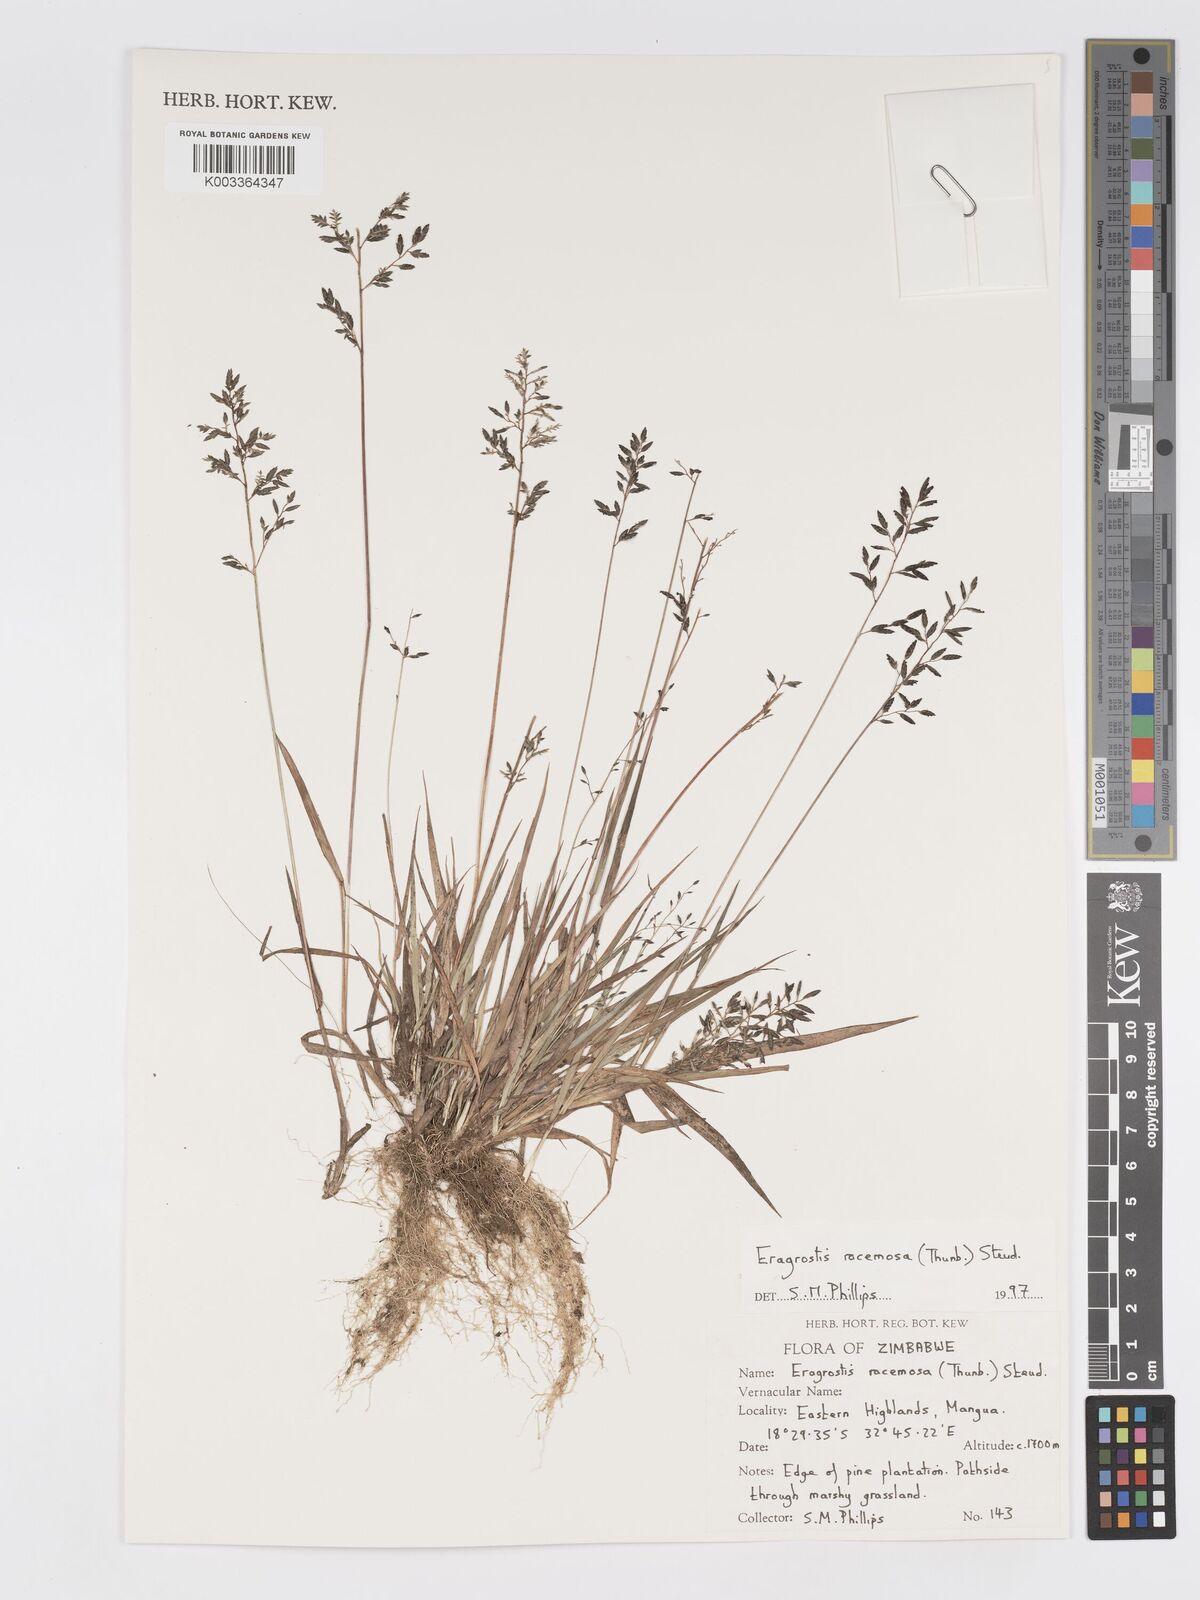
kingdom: Plantae
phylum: Tracheophyta
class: Liliopsida
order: Poales
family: Poaceae
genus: Eragrostis
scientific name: Eragrostis racemosa
